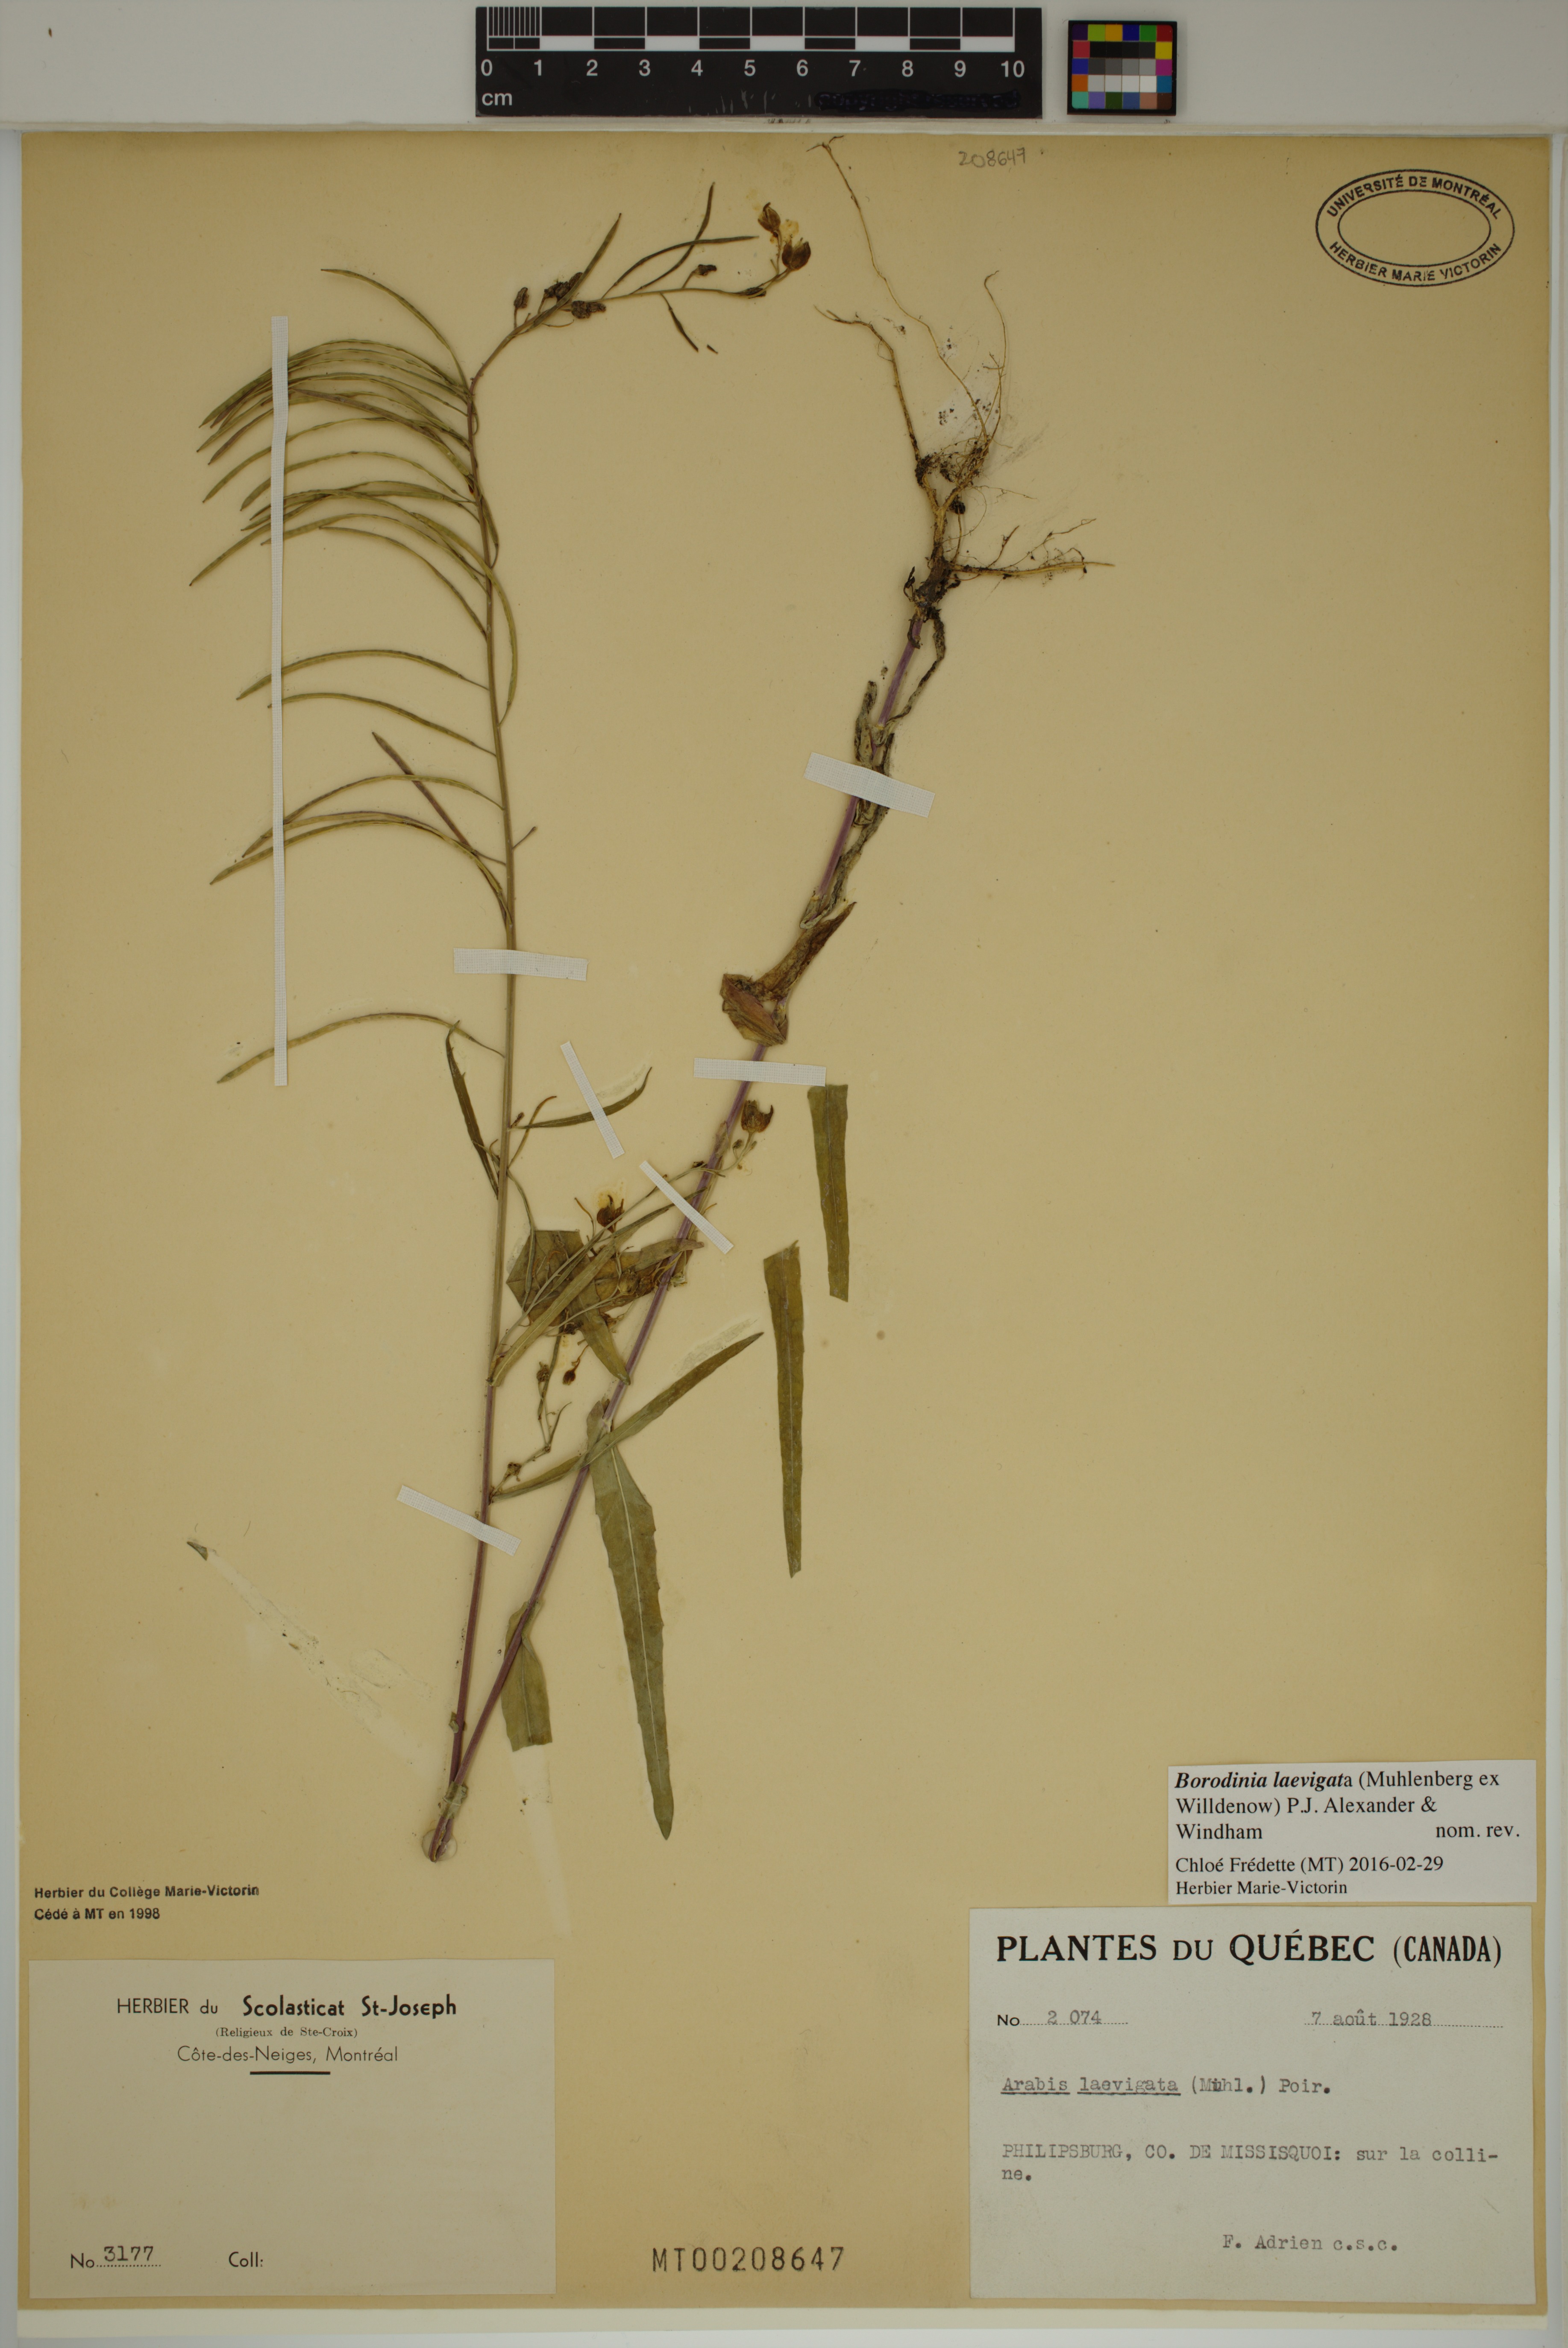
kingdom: Plantae
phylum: Tracheophyta
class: Magnoliopsida
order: Brassicales
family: Brassicaceae
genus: Borodinia
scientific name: Borodinia laevigata
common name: Smooth rockcress
